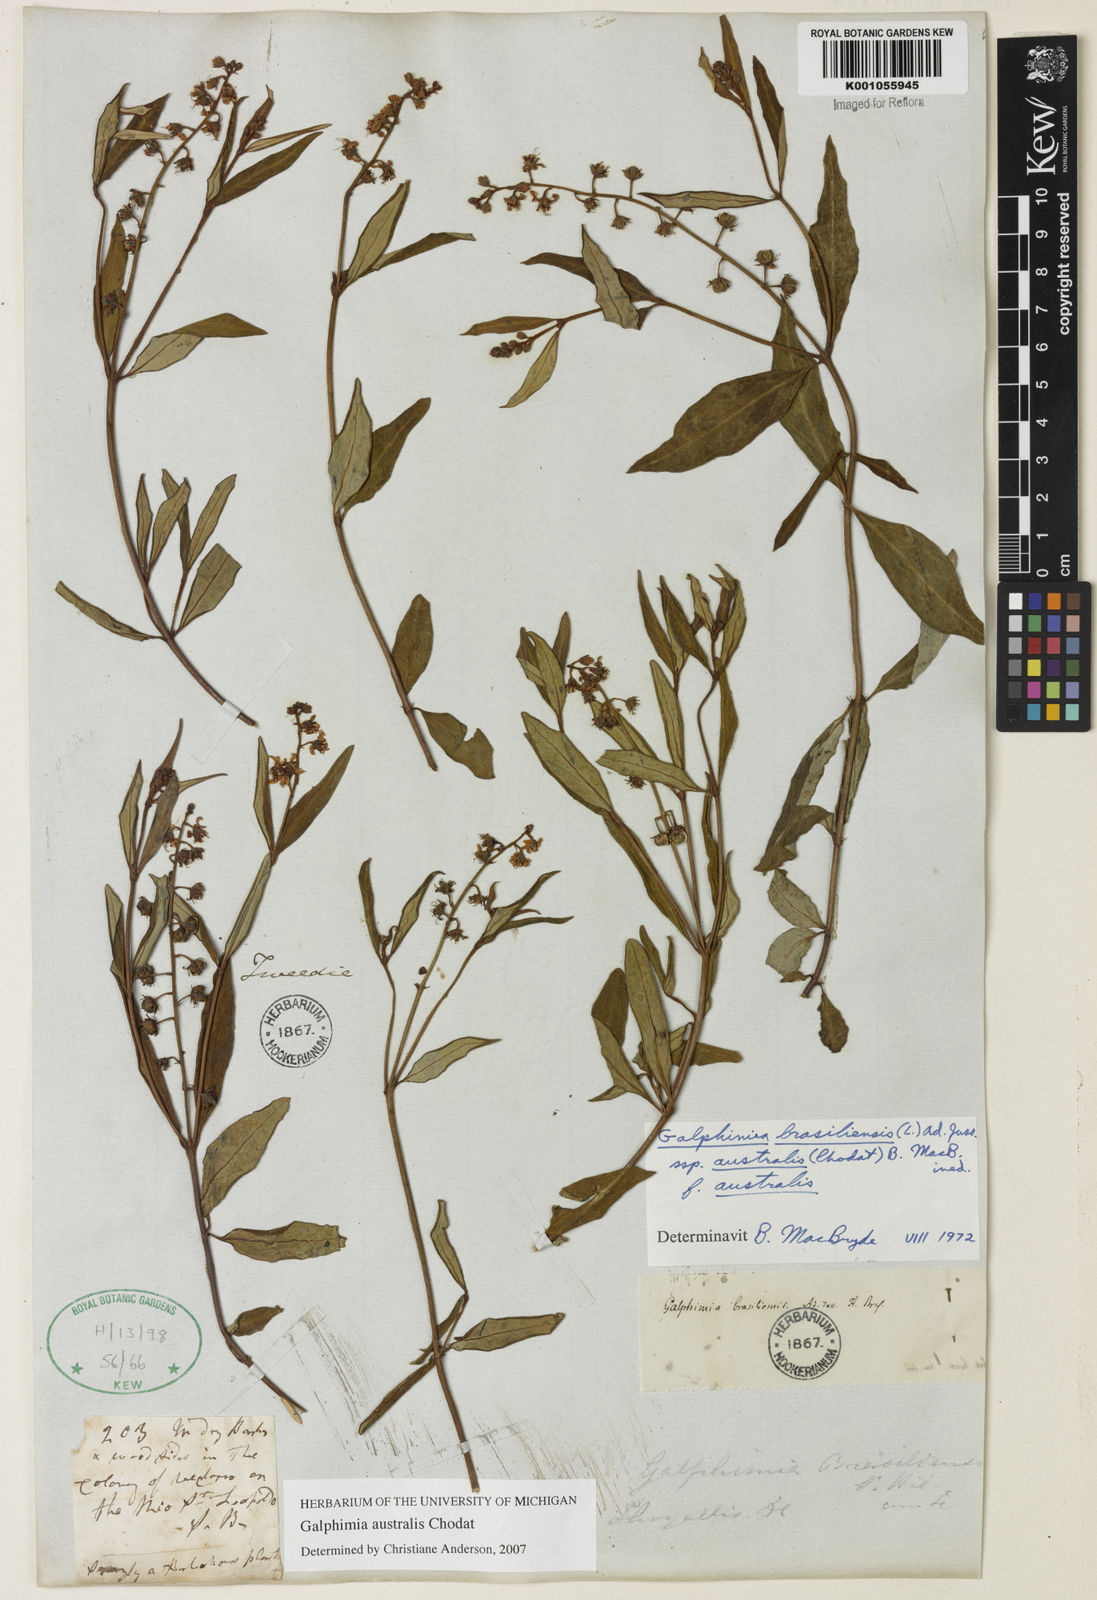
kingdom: Plantae
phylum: Tracheophyta
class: Magnoliopsida
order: Malpighiales
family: Malpighiaceae
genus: Galphimia
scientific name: Galphimia brasiliensis
